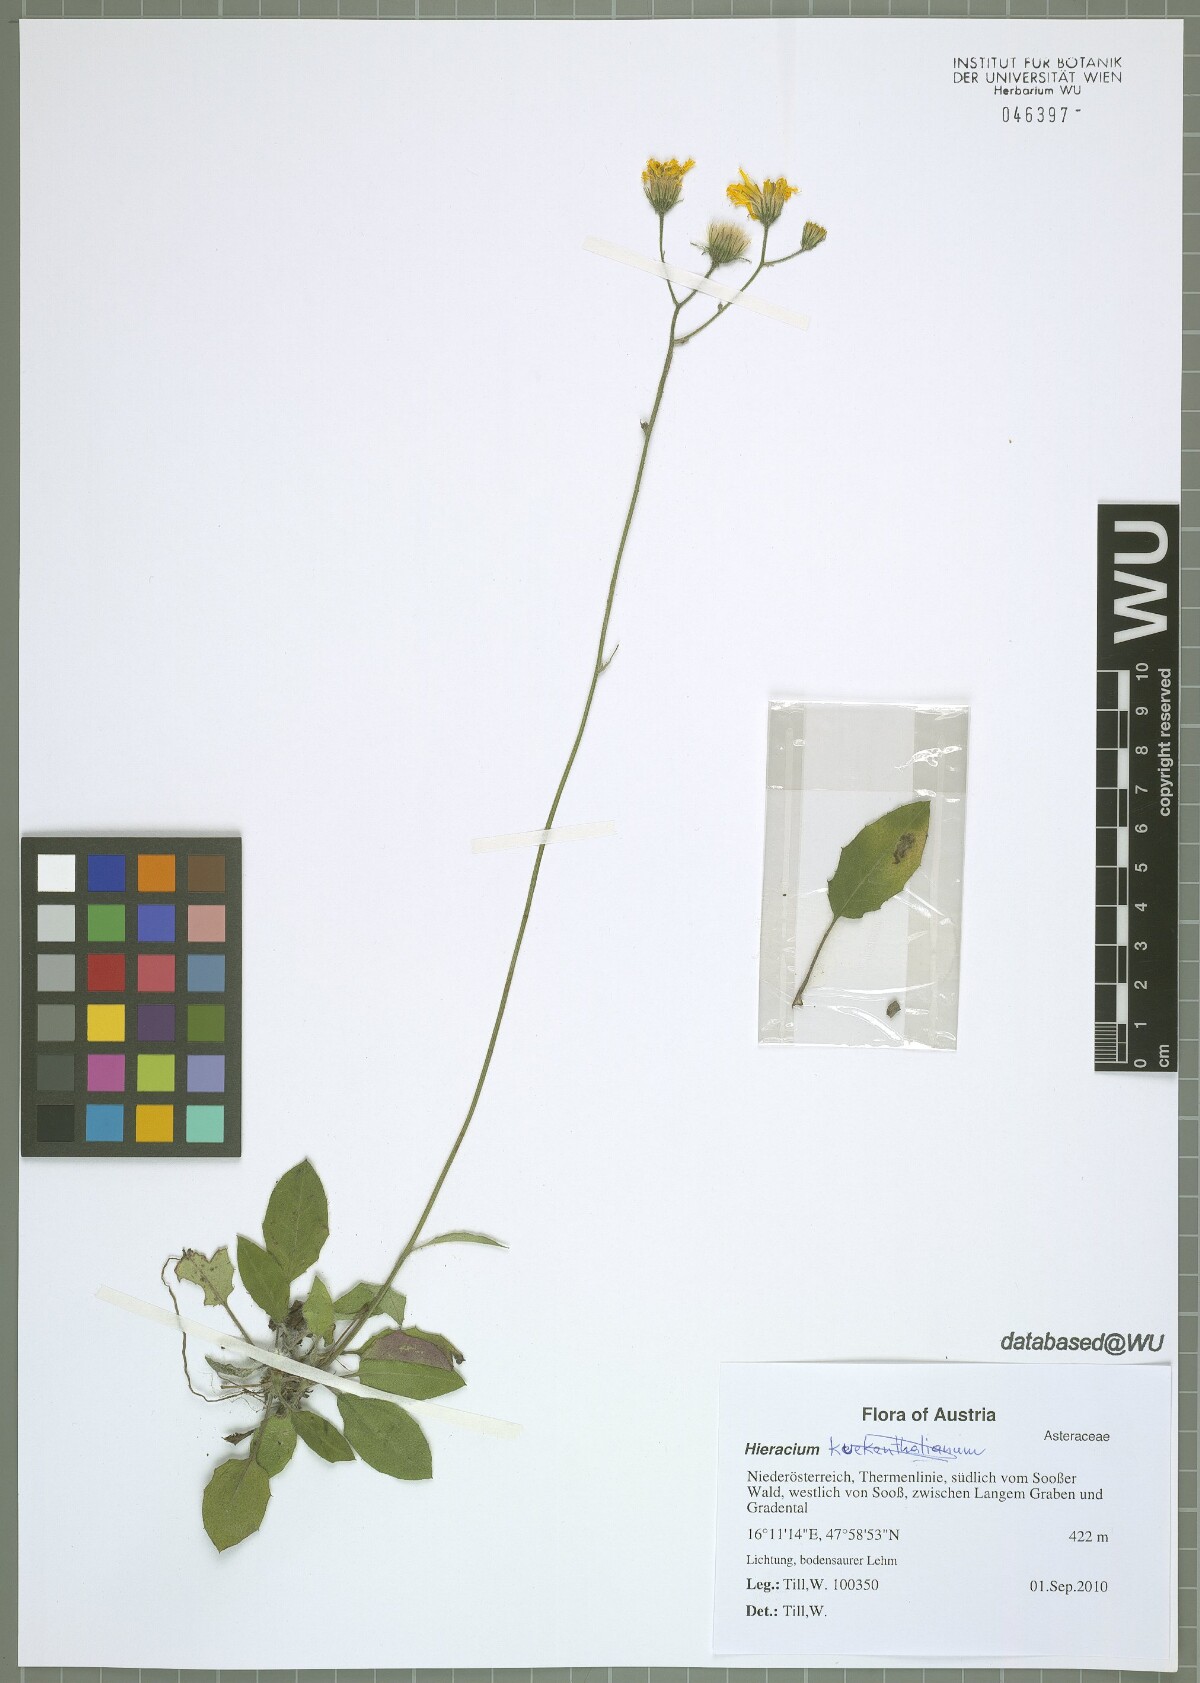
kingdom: Plantae
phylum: Tracheophyta
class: Magnoliopsida
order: Asterales
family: Asteraceae
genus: Hieracium
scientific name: Hieracium lachenalii
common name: Common hawkweed
